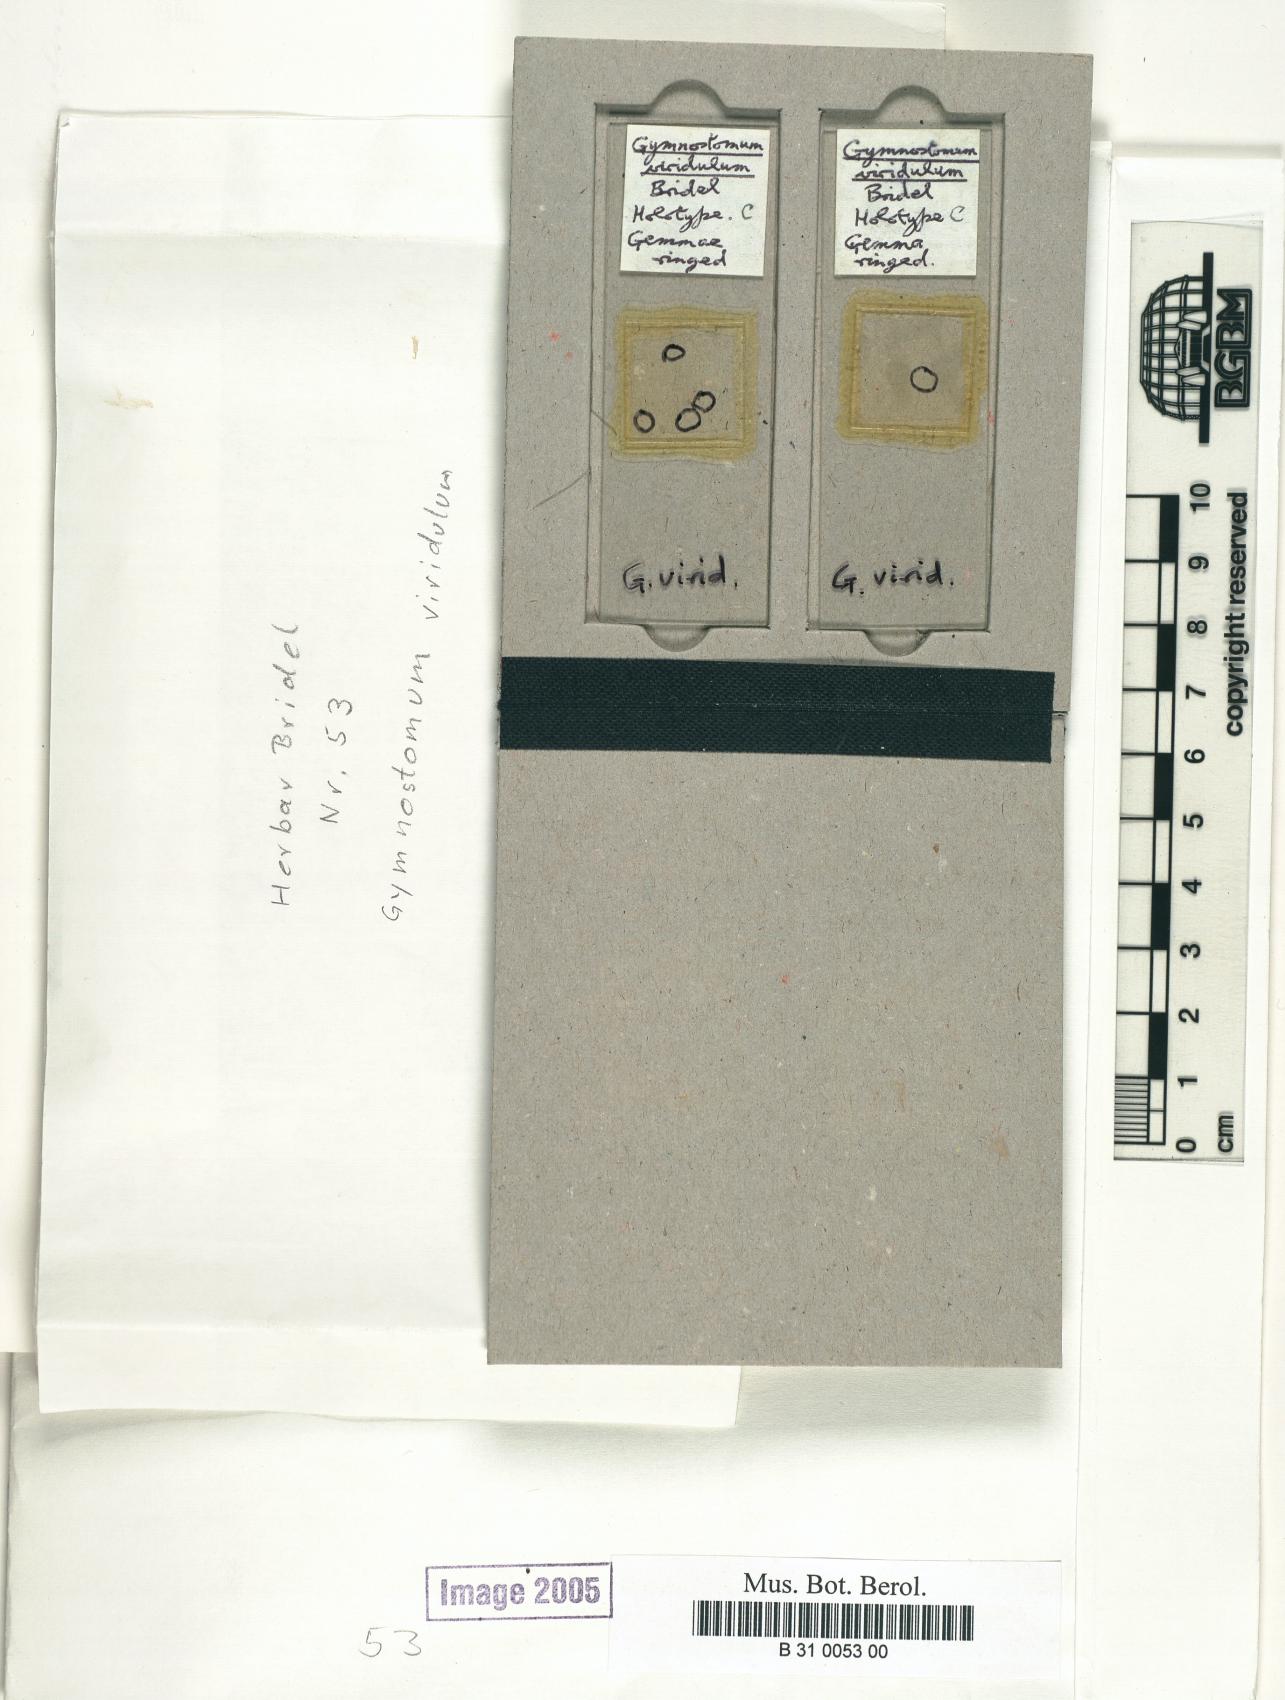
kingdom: Plantae
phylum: Bryophyta
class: Bryopsida
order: Pottiales
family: Pottiaceae
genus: Gymnostomum
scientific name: Gymnostomum viridulum
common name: Luisier's tufa-moss
